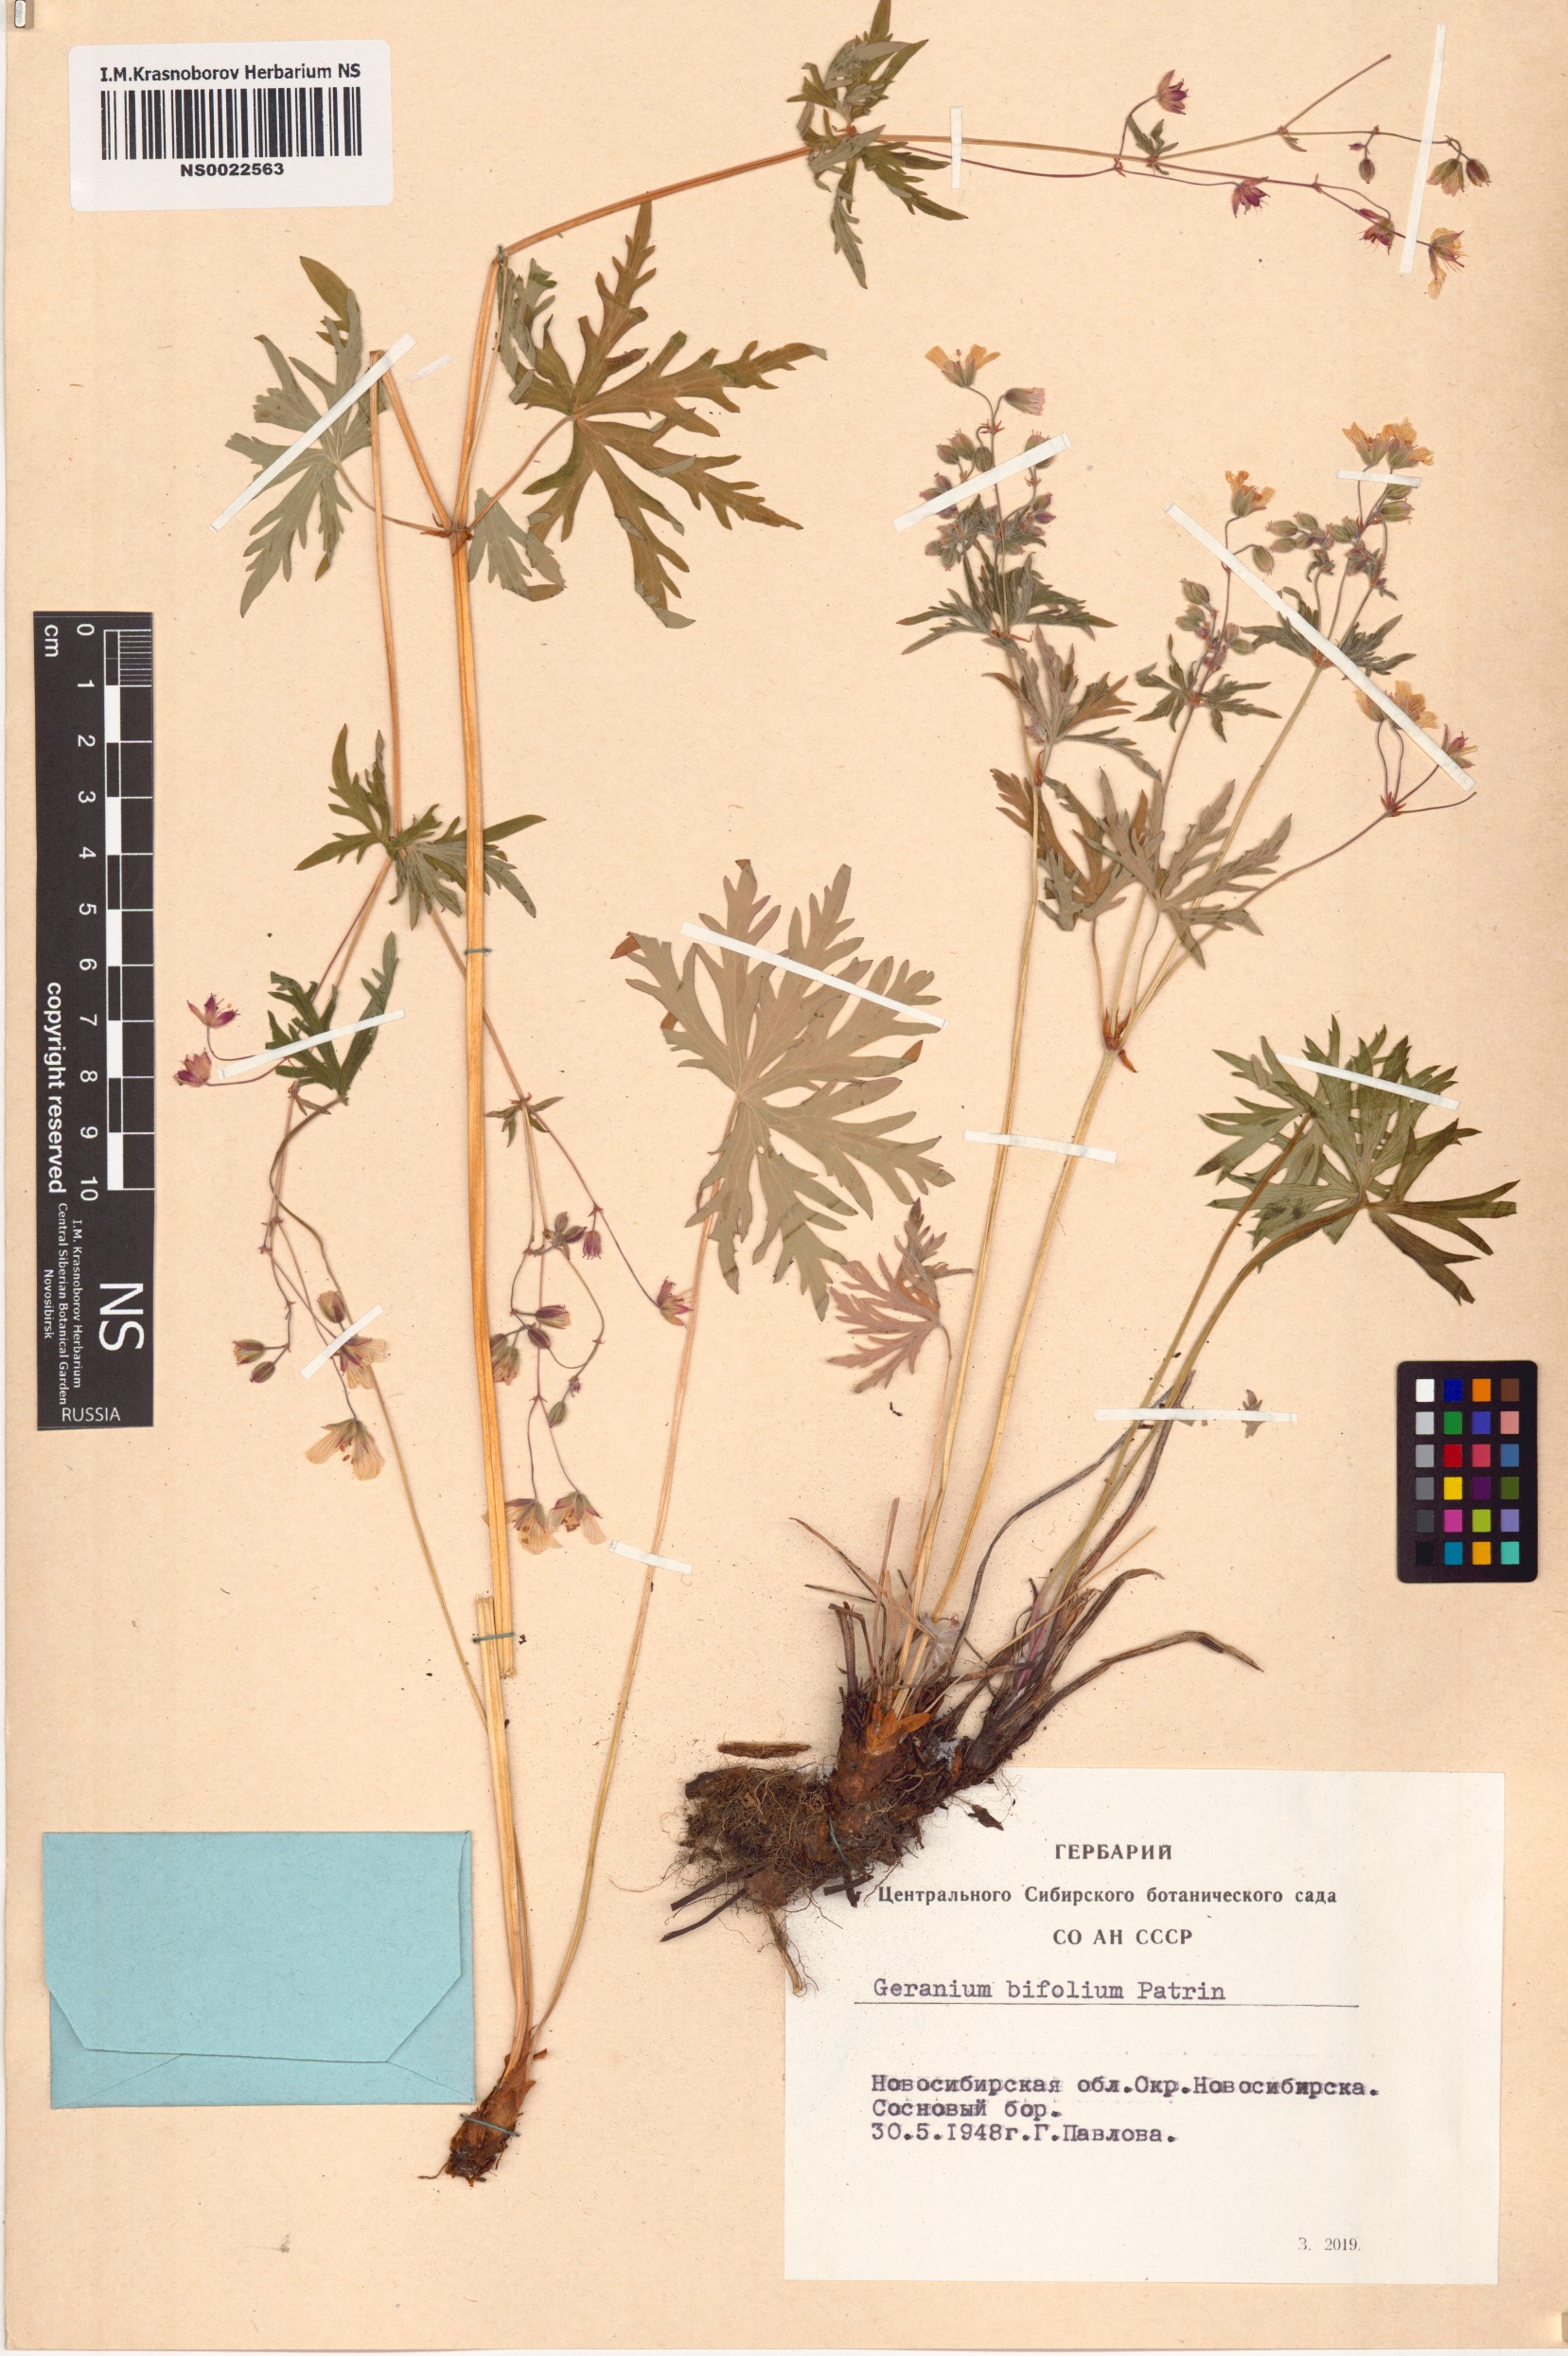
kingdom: Plantae
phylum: Tracheophyta
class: Magnoliopsida
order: Geraniales
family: Geraniaceae
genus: Geranium
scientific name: Geranium pseudosibiricum
